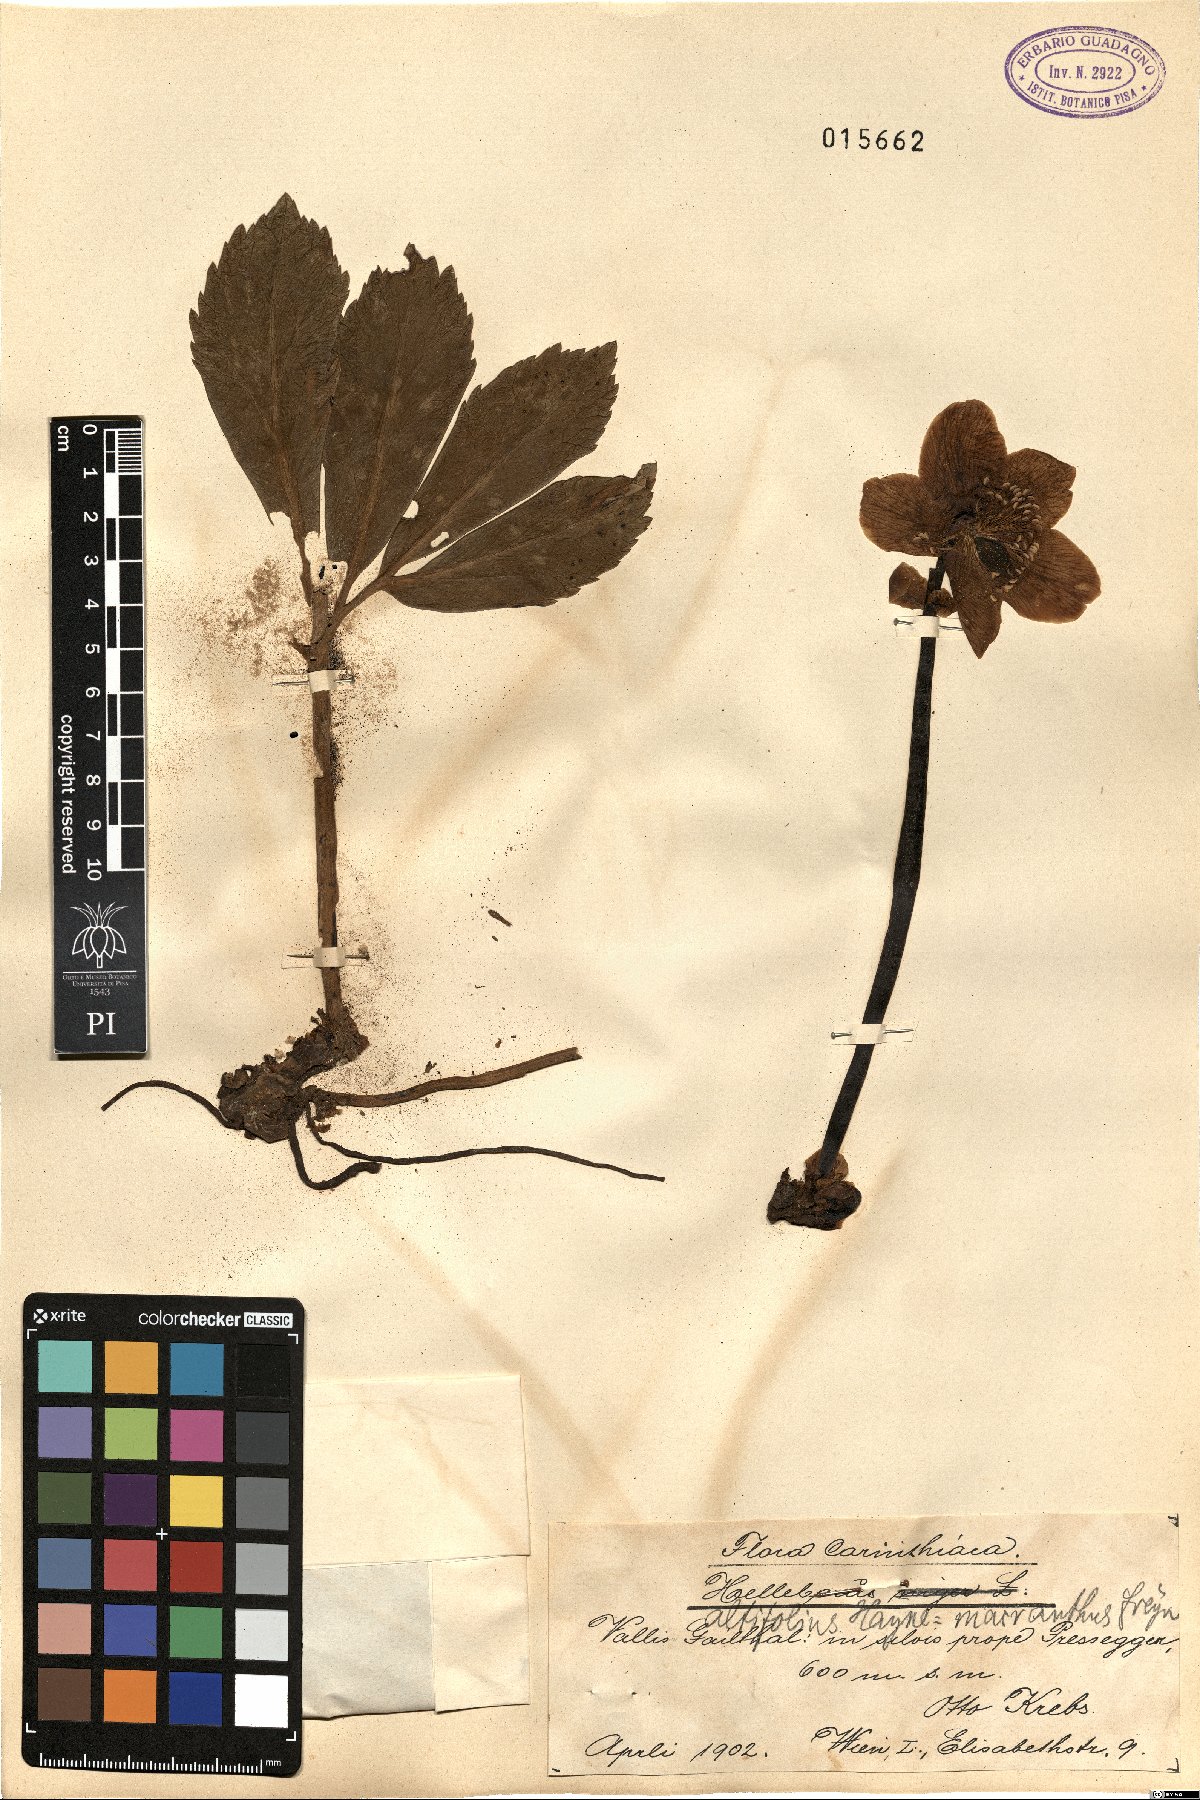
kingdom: Plantae
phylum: Tracheophyta
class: Magnoliopsida
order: Ranunculales
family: Ranunculaceae
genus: Helleborus
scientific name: Helleborus niger
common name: Black hellebore
